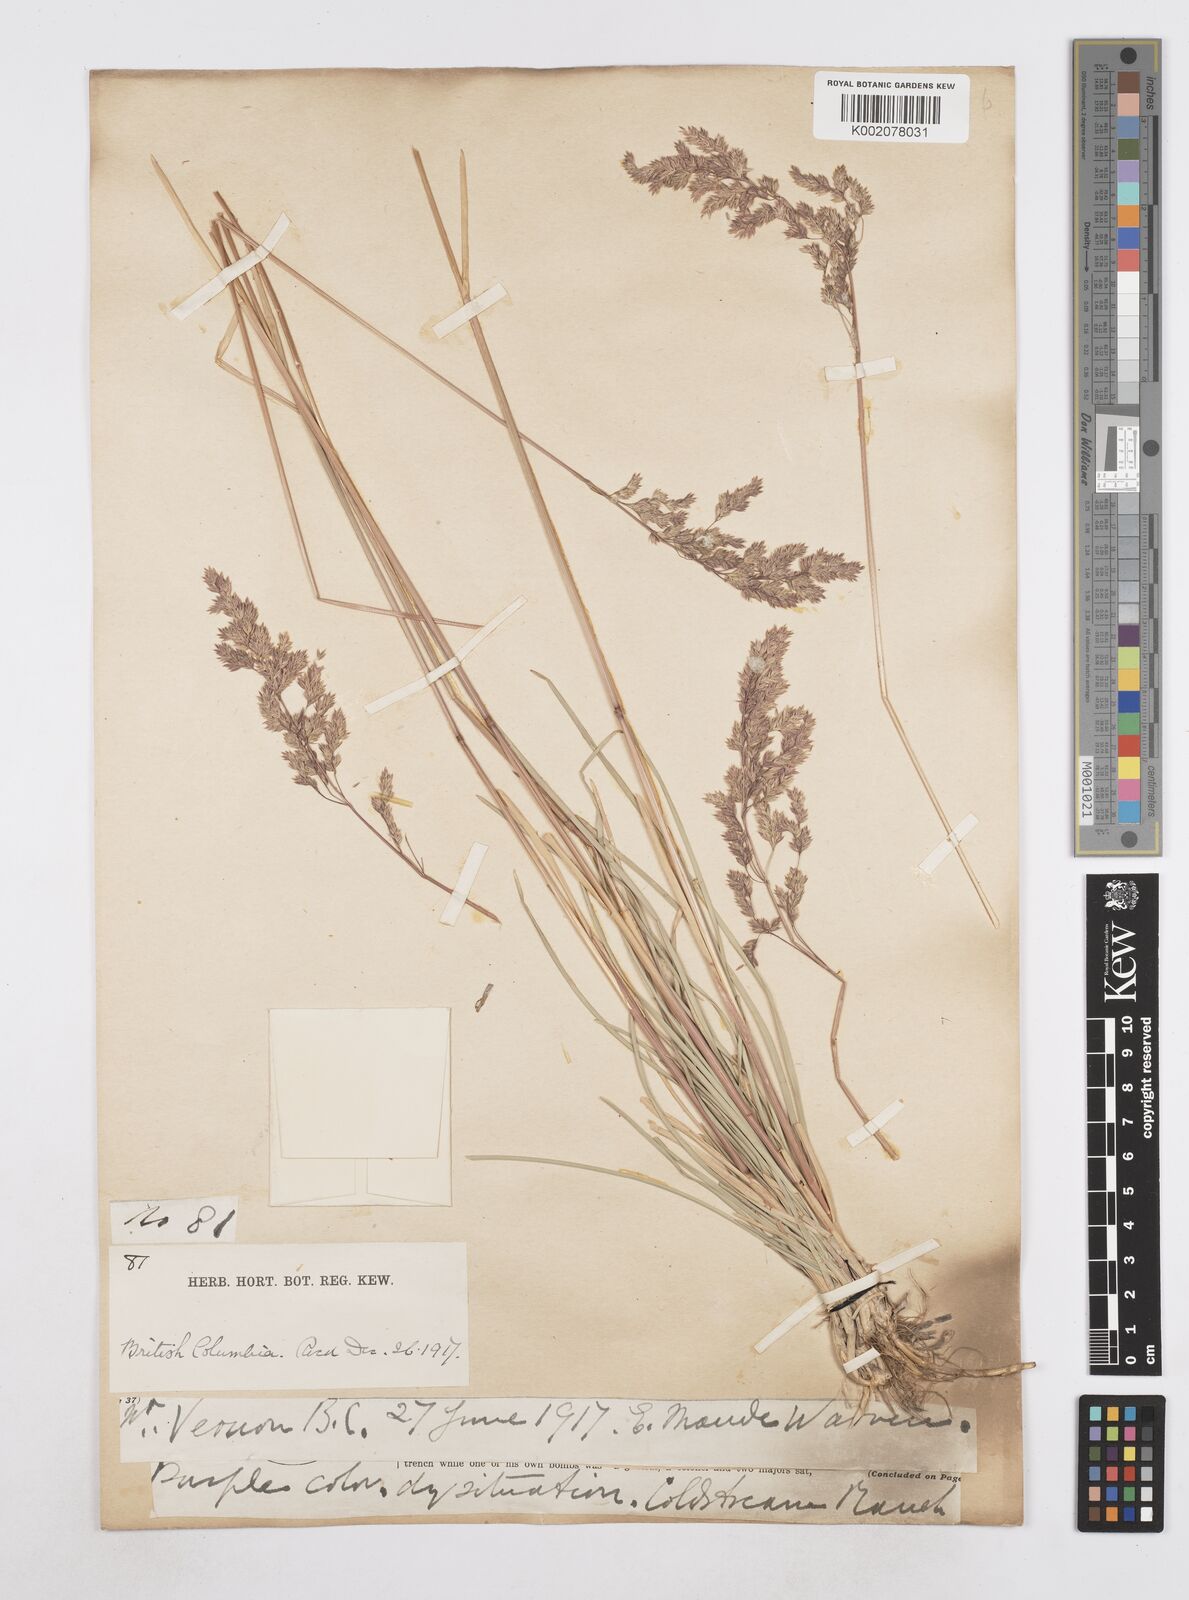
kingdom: Plantae
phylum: Tracheophyta
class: Liliopsida
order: Poales
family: Poaceae
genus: Poa
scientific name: Poa
